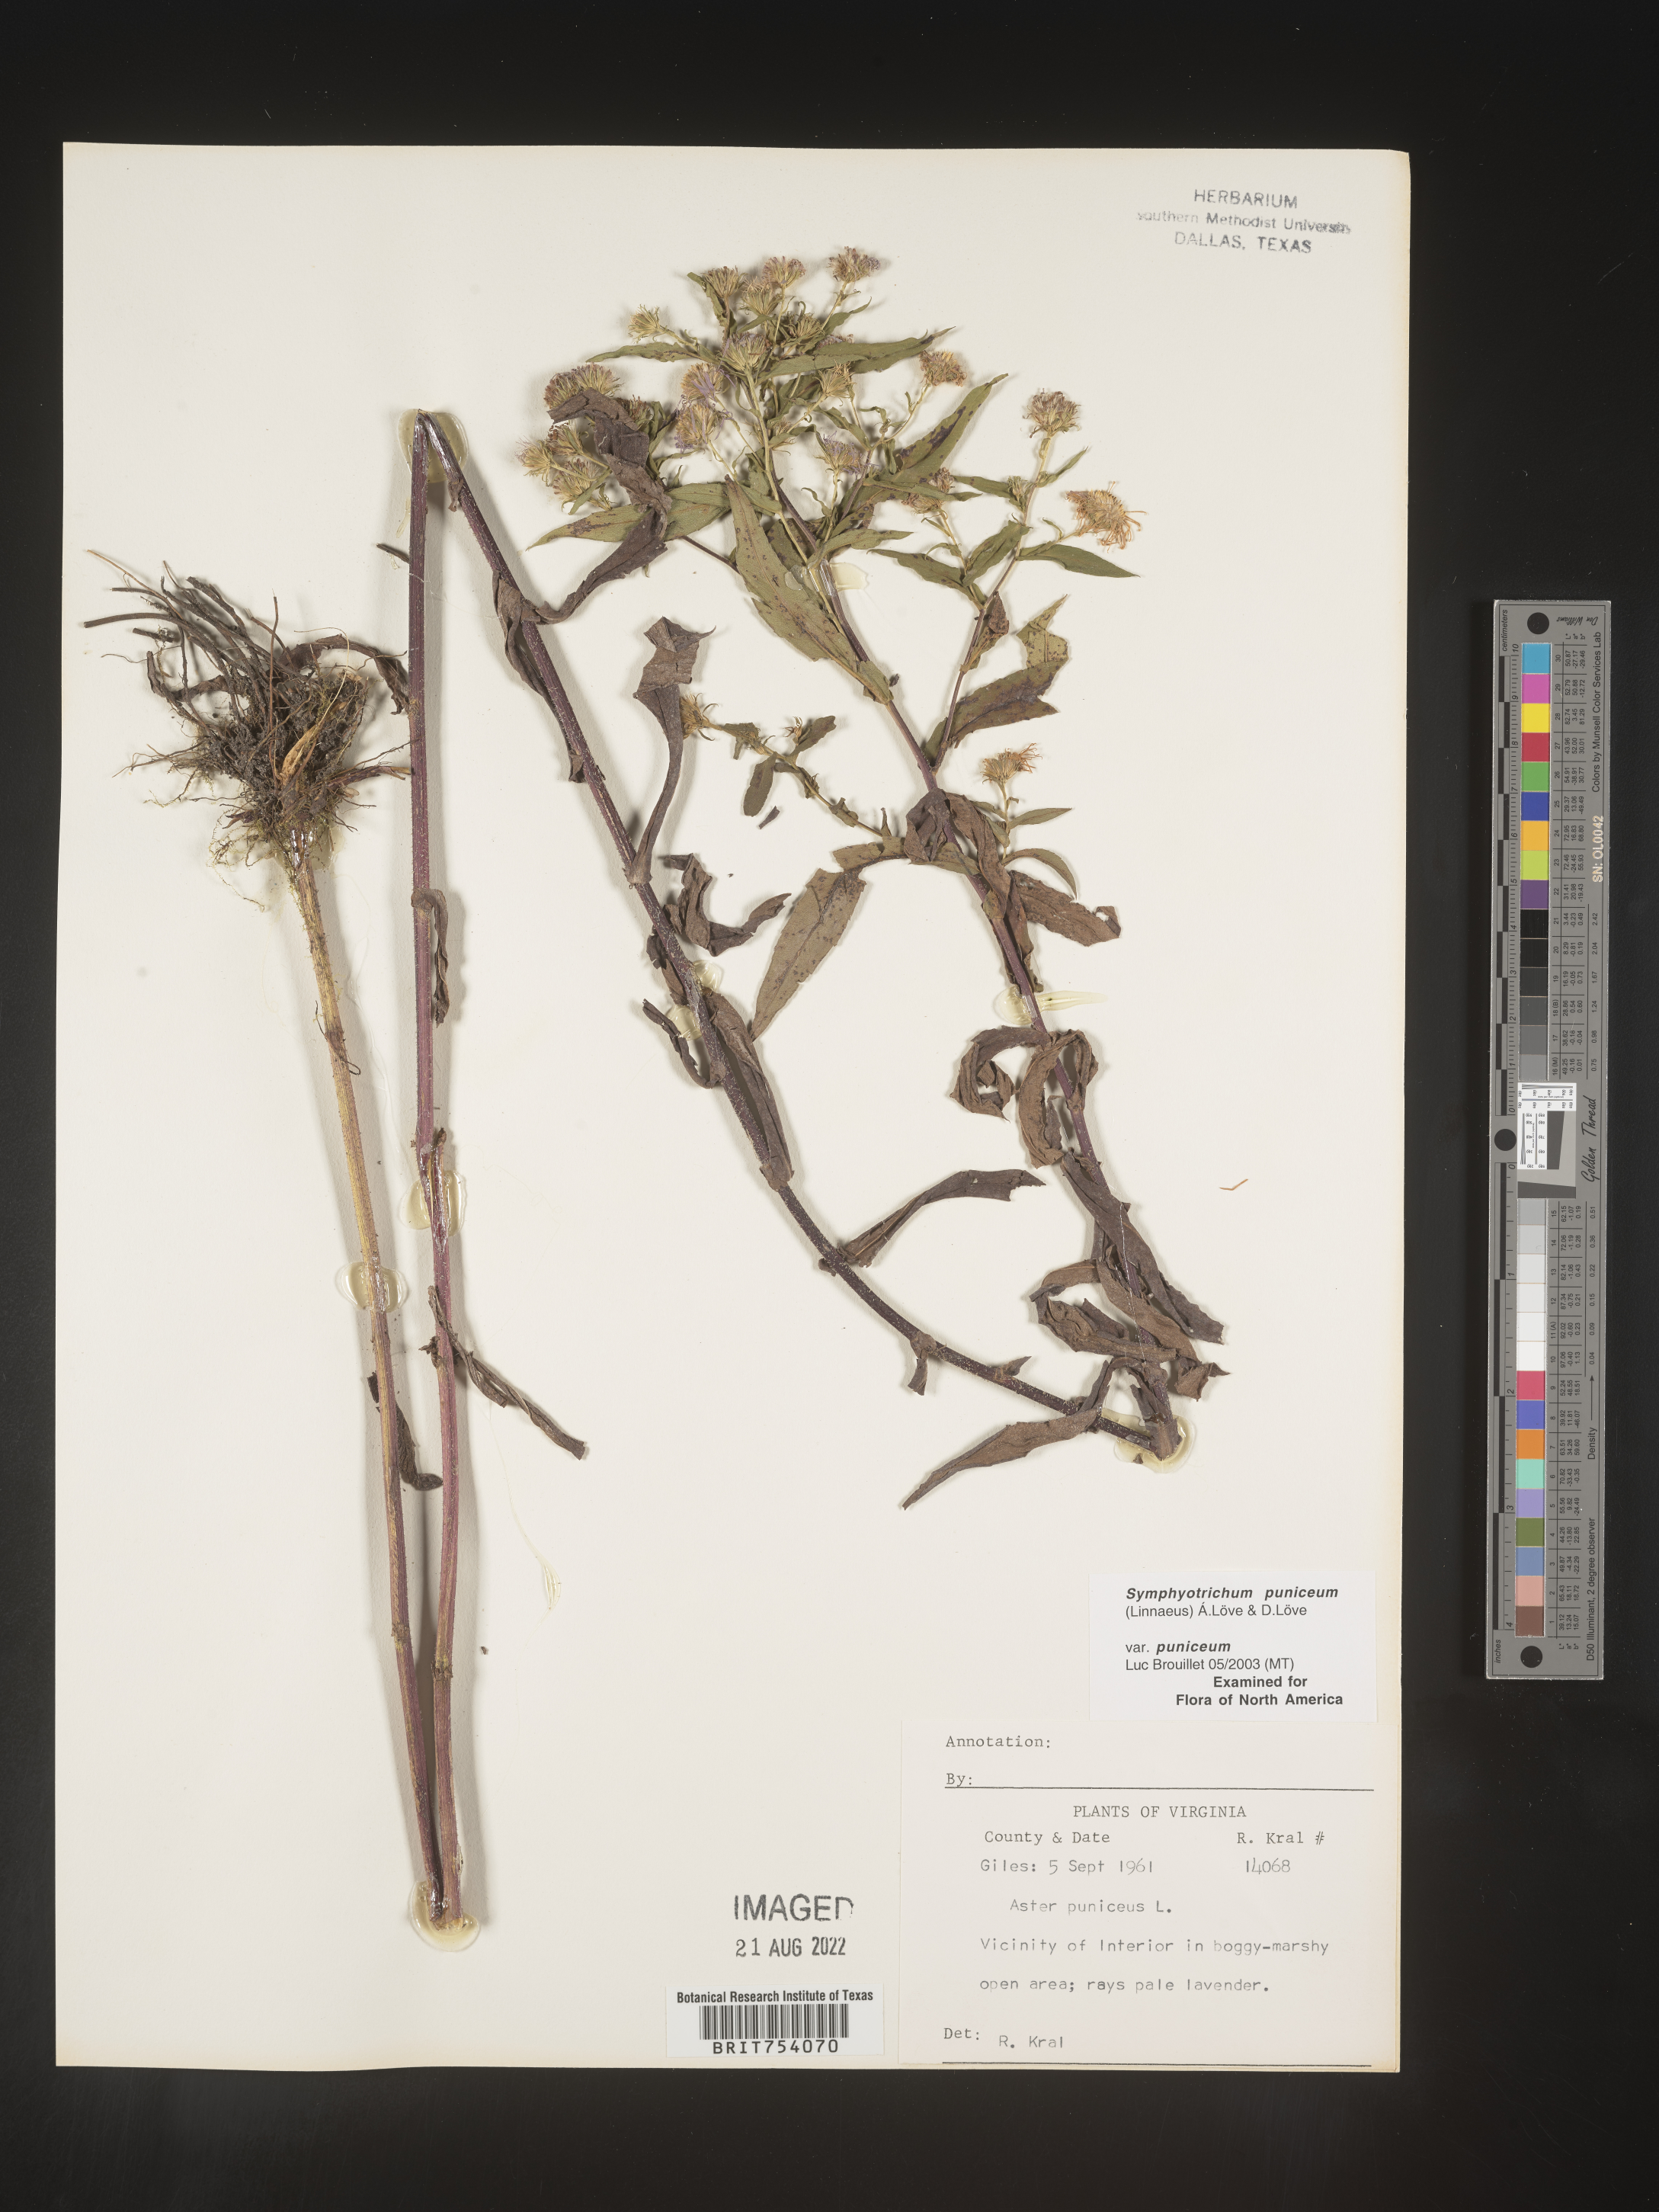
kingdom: Plantae
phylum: Tracheophyta
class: Magnoliopsida
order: Asterales
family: Asteraceae
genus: Symphyotrichum
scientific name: Symphyotrichum puniceum
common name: Bog aster
